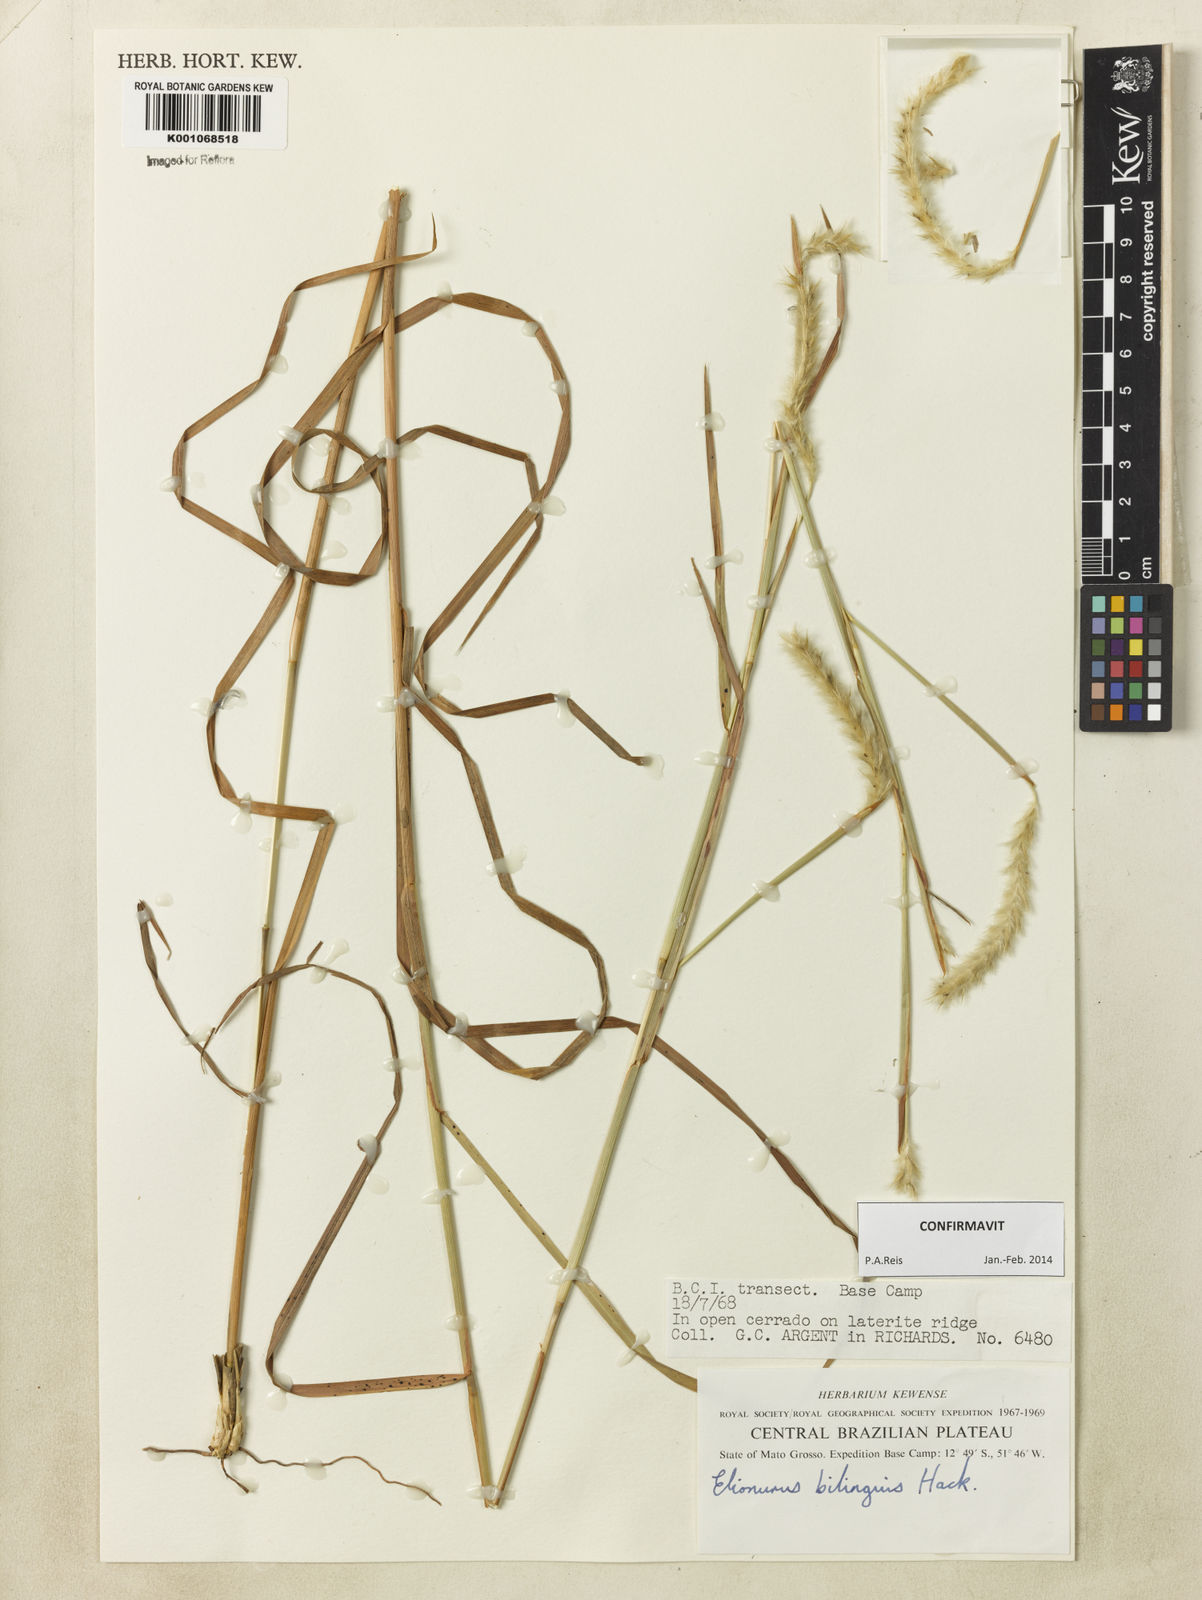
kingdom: Plantae
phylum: Tracheophyta
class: Liliopsida
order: Poales
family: Poaceae
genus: Elionurus
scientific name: Elionurus bilinguis
